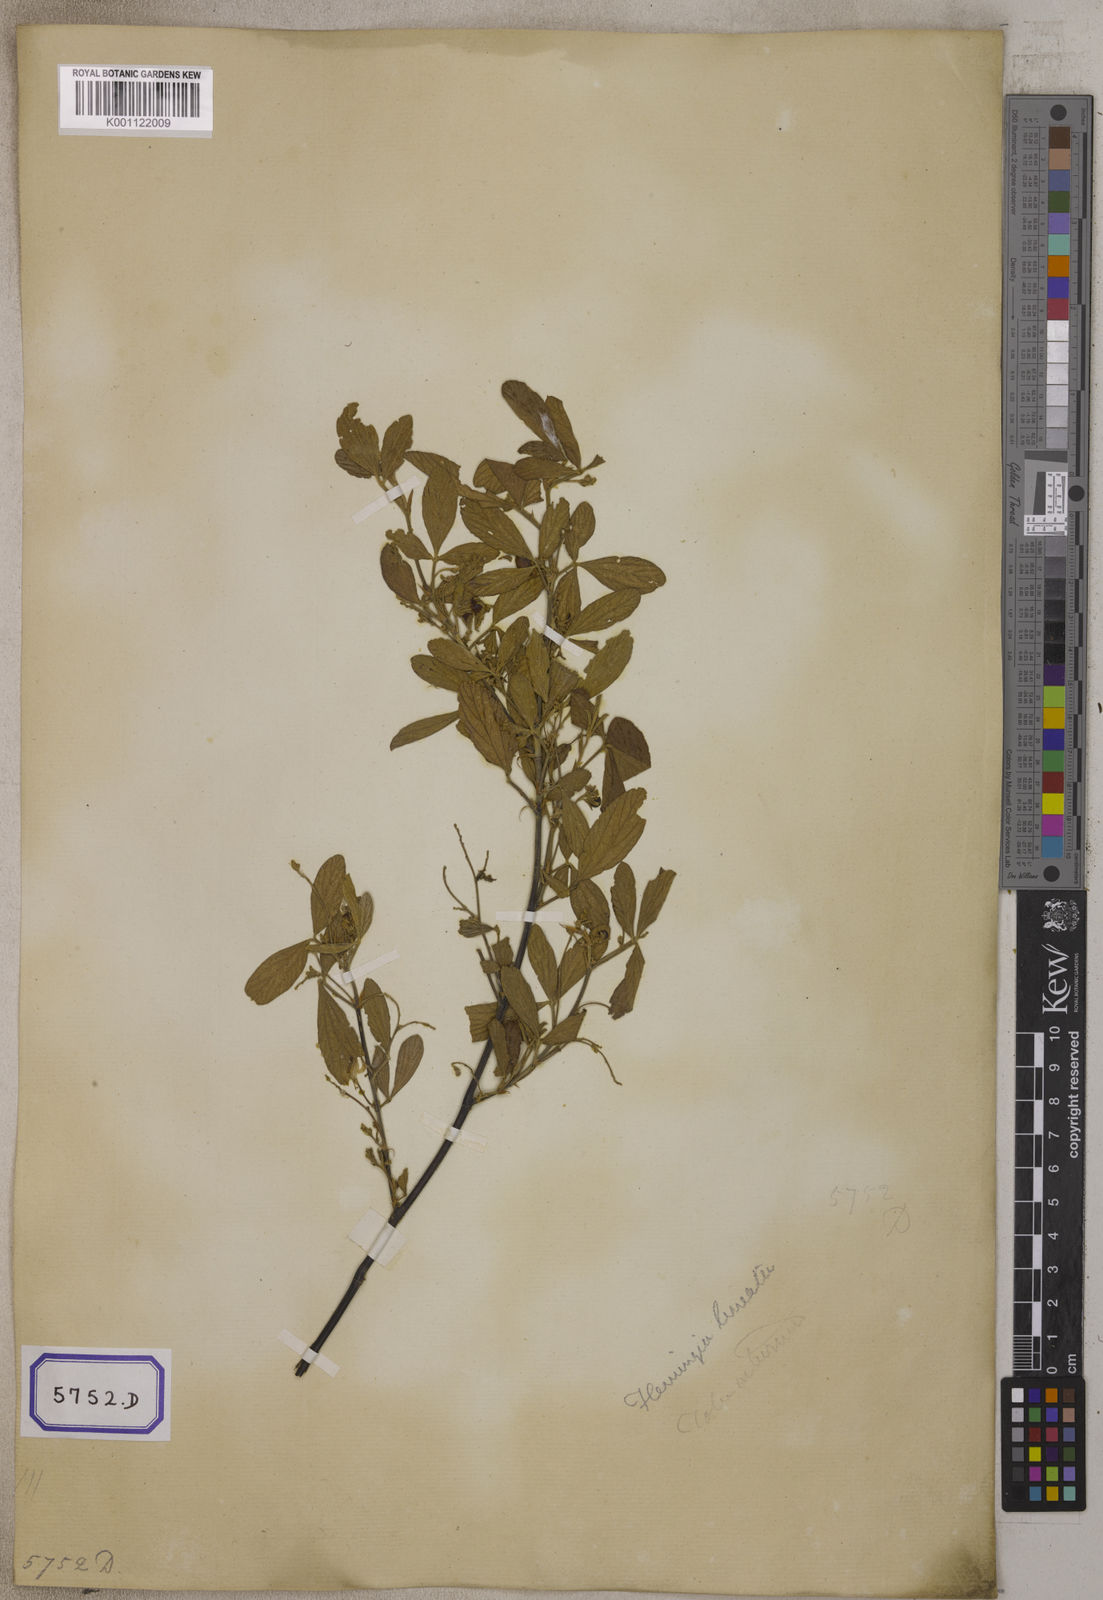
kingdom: Plantae
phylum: Tracheophyta
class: Magnoliopsida
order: Fabales
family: Fabaceae
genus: Flemingia
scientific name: Flemingia lineata
